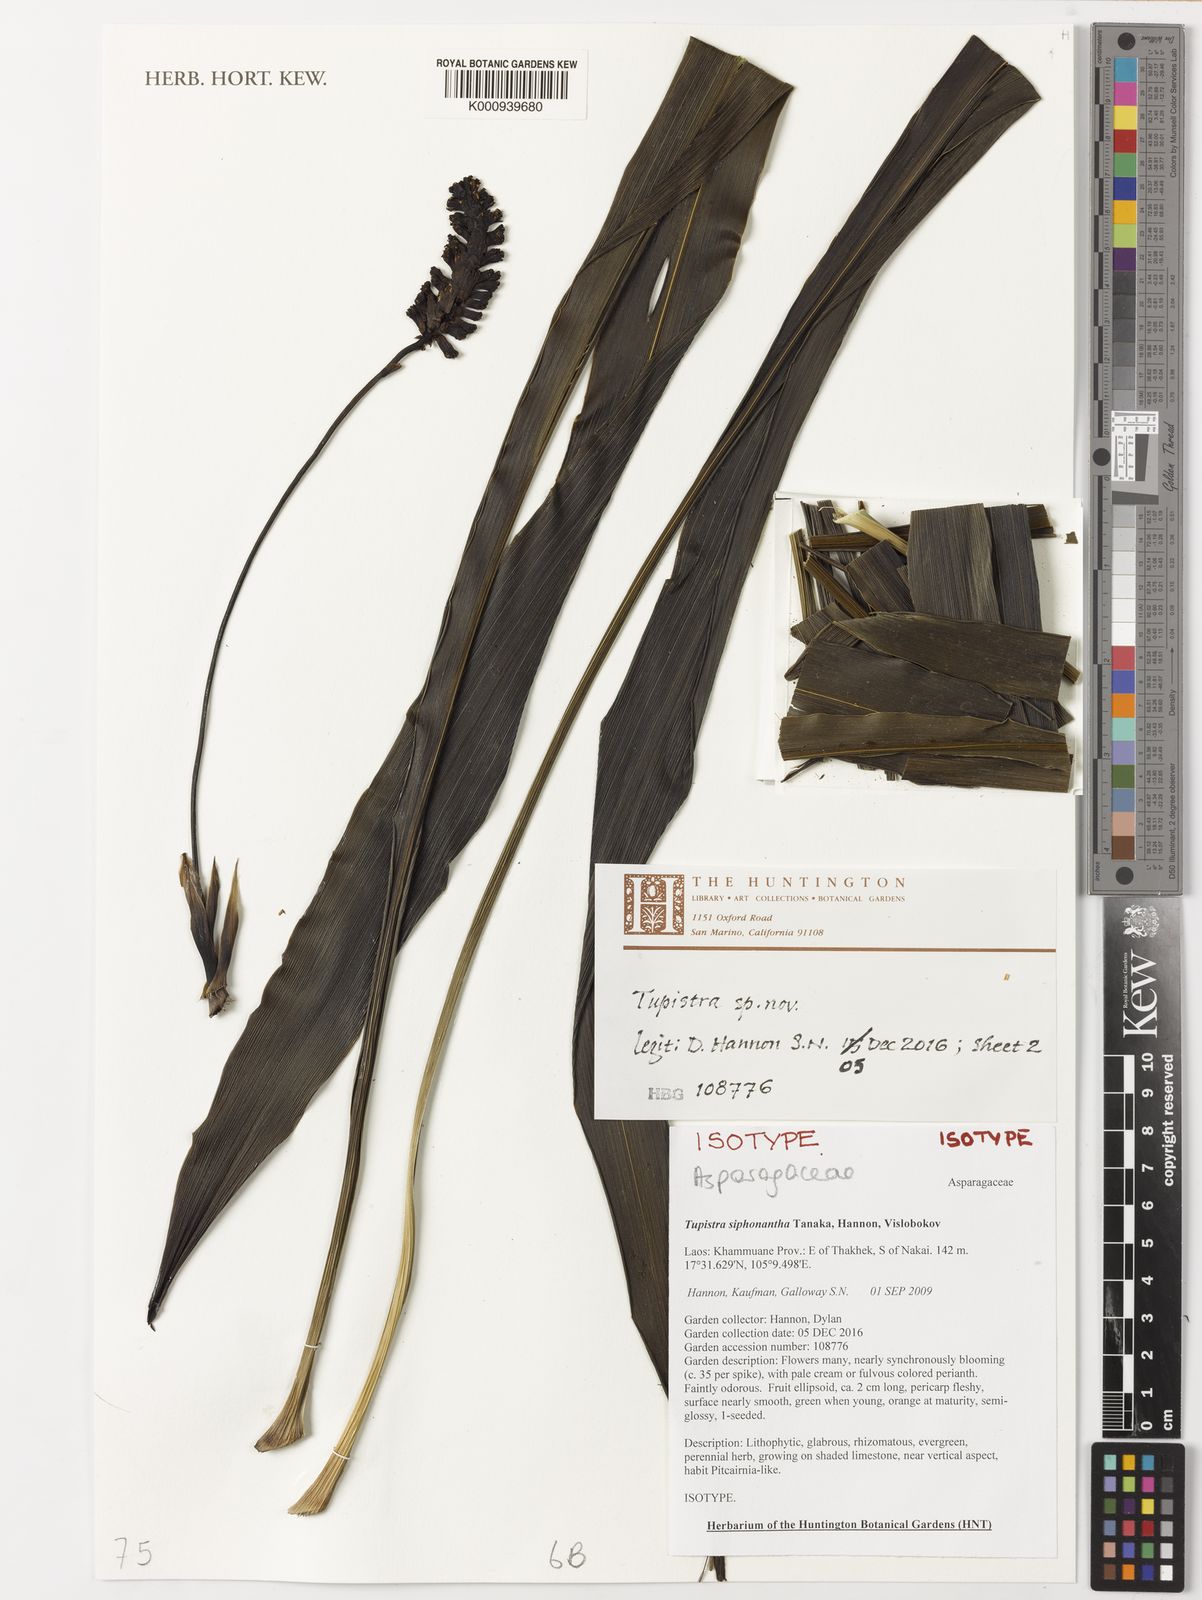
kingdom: Plantae
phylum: Tracheophyta
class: Liliopsida
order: Asparagales
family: Asparagaceae
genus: Tupistra
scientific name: Tupistra siphonantha
